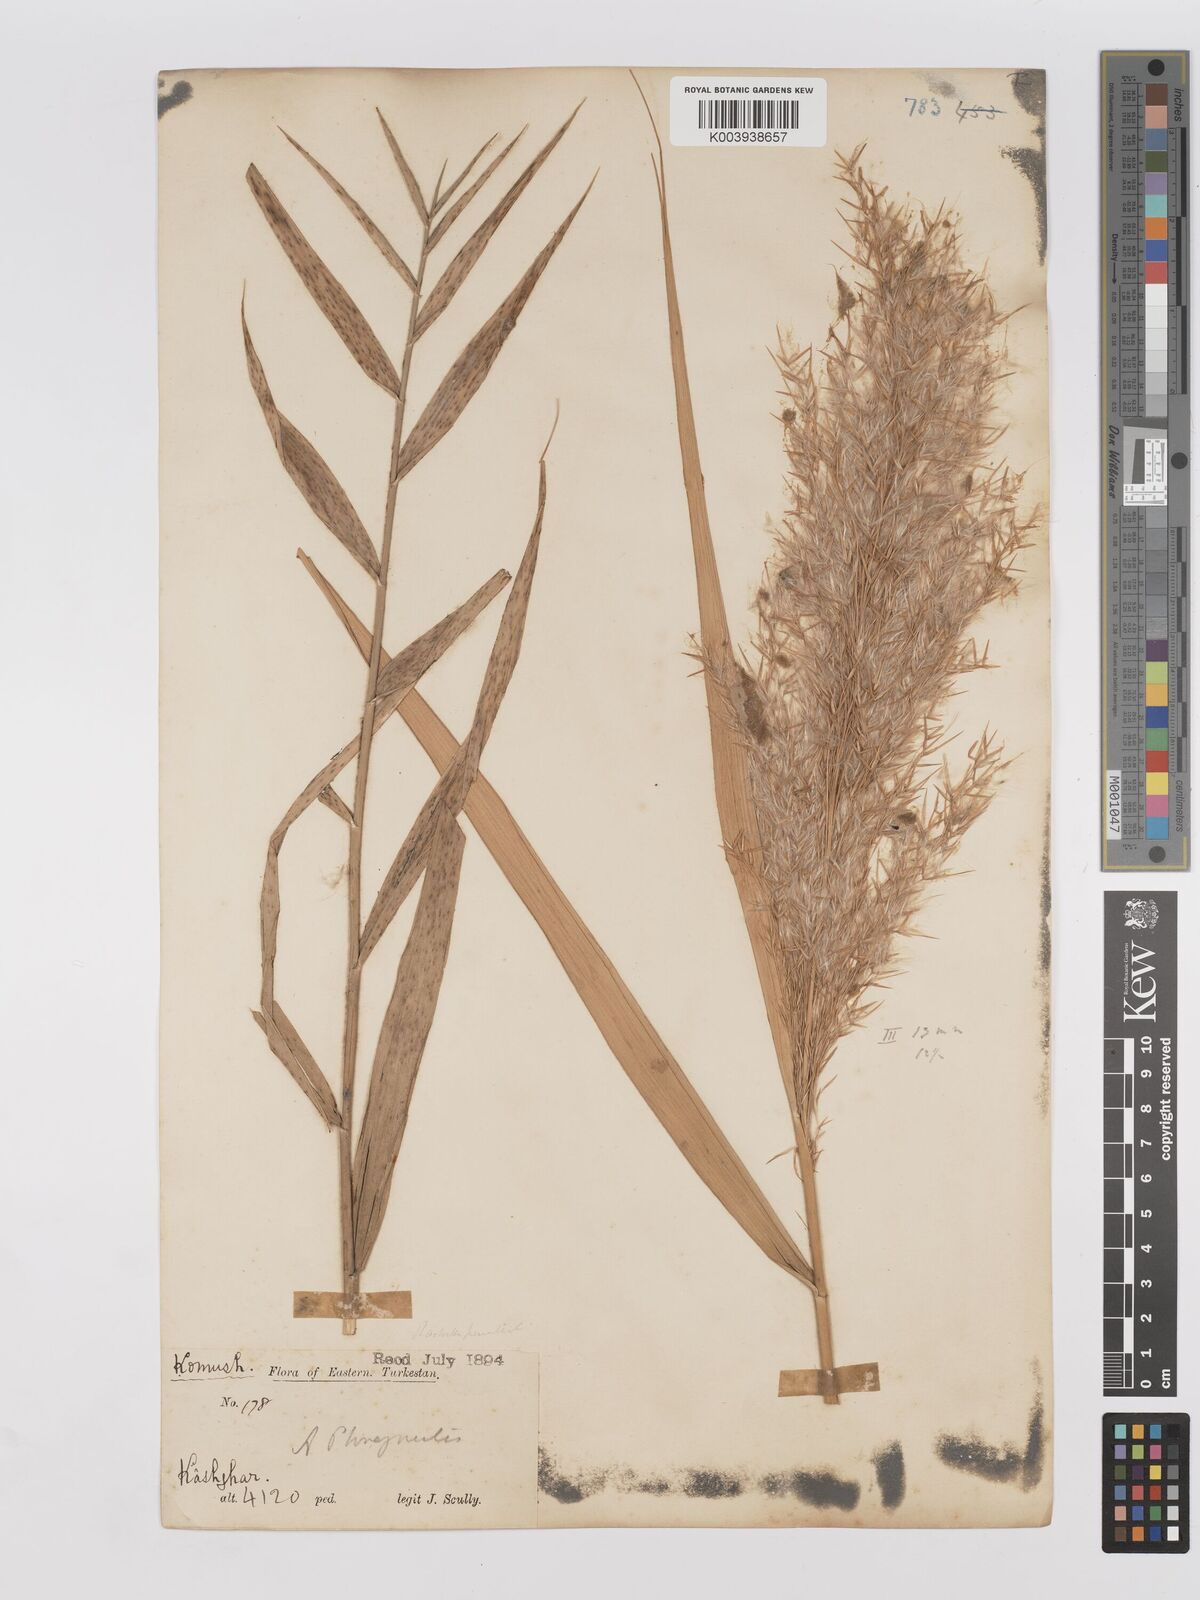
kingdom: Plantae
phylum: Tracheophyta
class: Liliopsida
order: Poales
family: Poaceae
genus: Phragmites
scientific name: Phragmites australis
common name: Common reed
